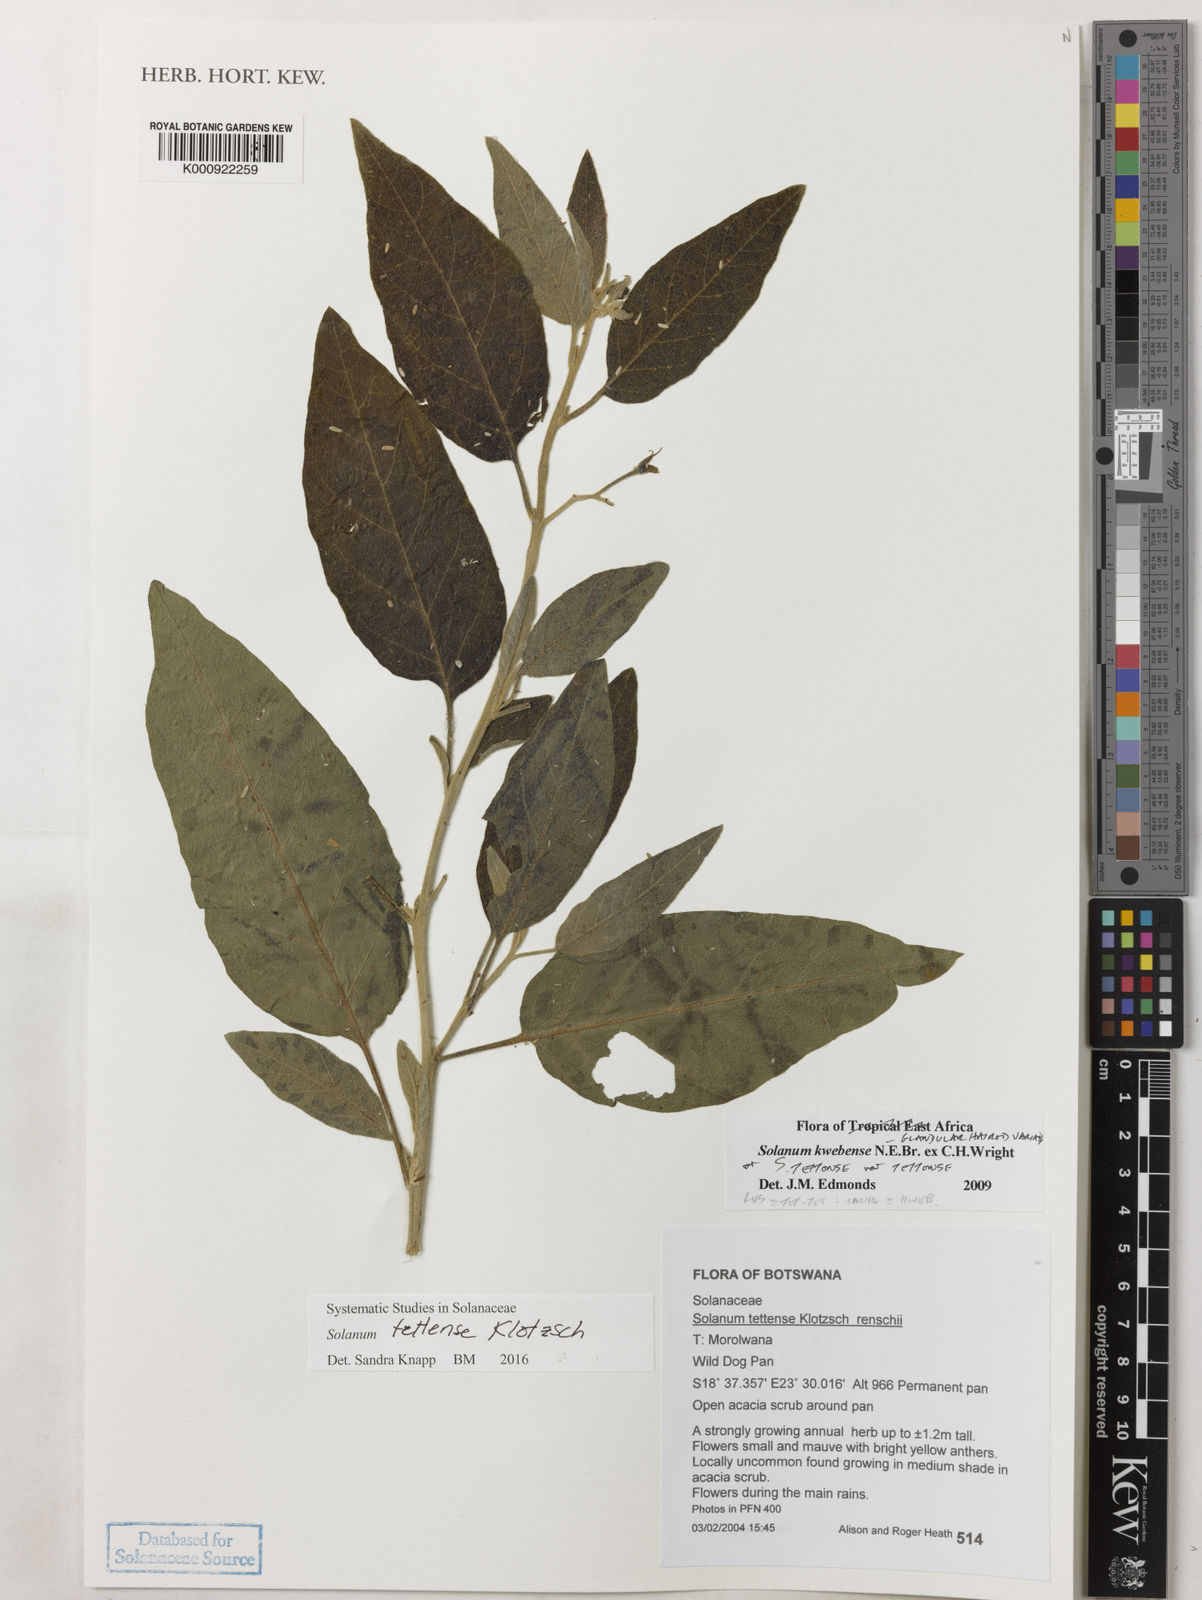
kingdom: Plantae
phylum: Tracheophyta
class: Magnoliopsida
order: Solanales
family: Solanaceae
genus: Solanum
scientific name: Solanum tettense
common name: Mozambique bitter apple
